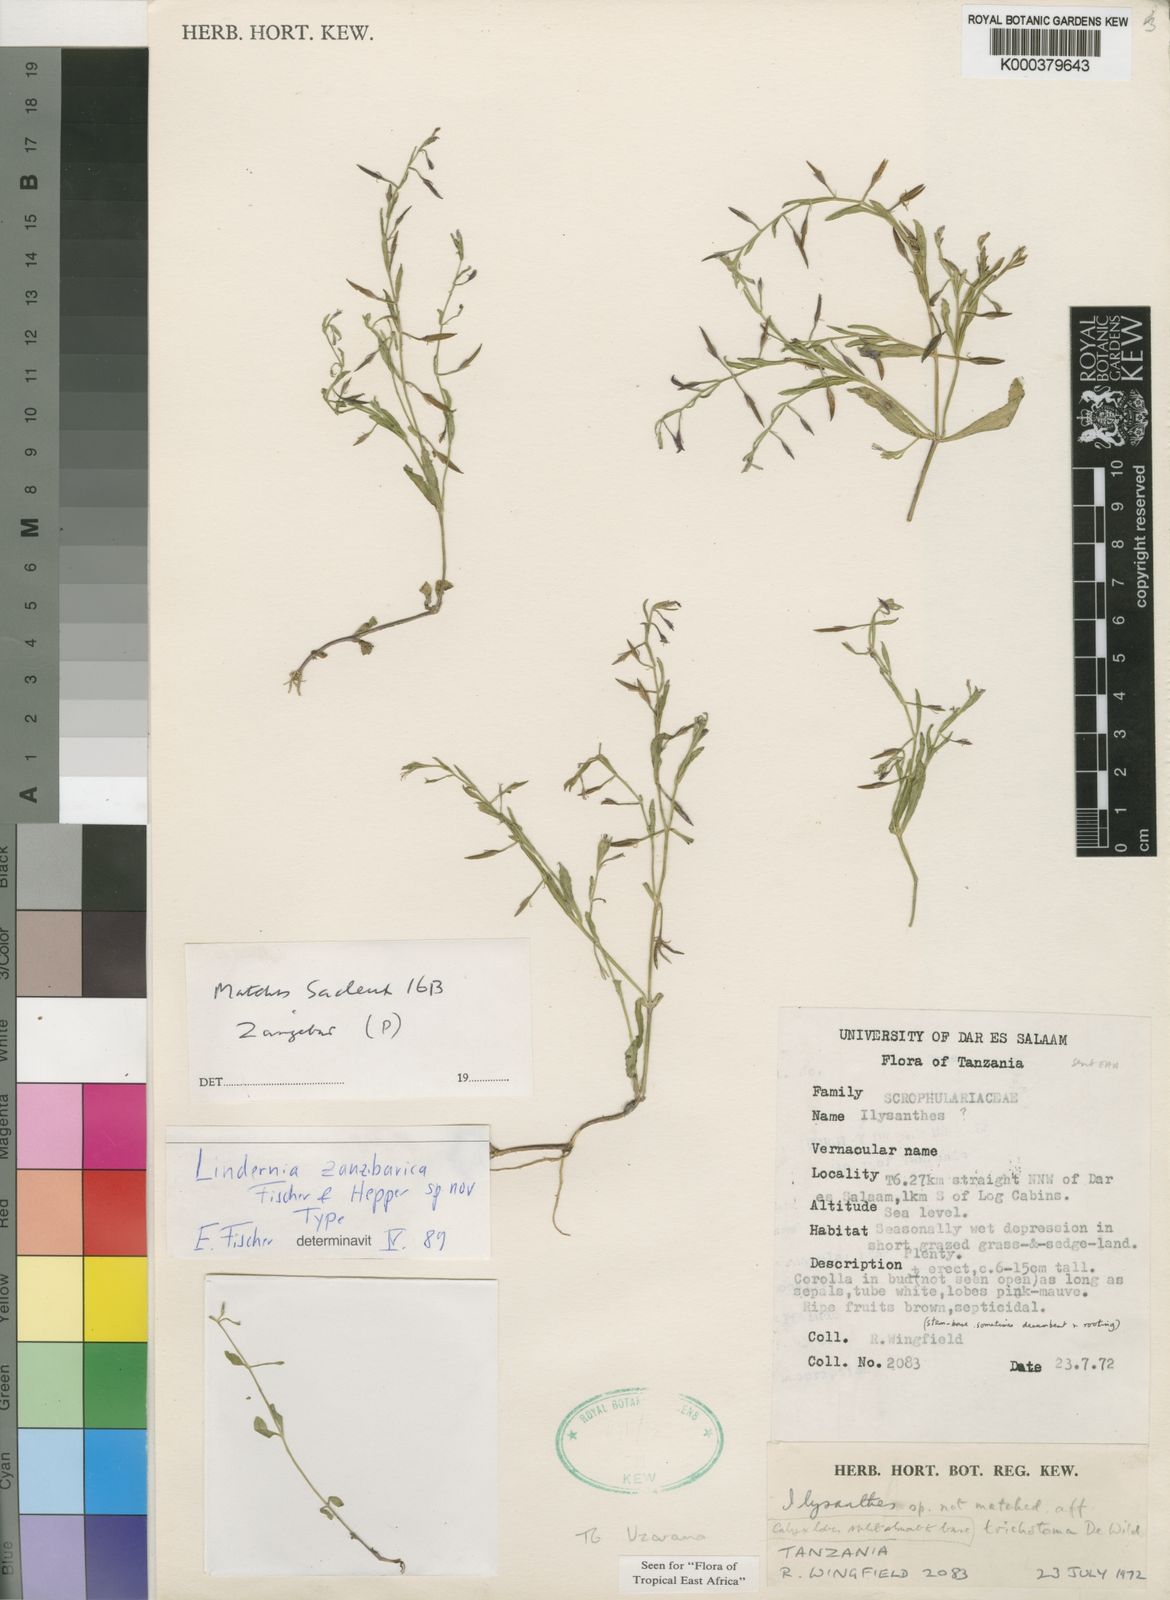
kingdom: Plantae
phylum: Tracheophyta
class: Magnoliopsida
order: Lamiales
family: Linderniaceae
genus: Bonnaya
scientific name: Bonnaya zanzibarica
